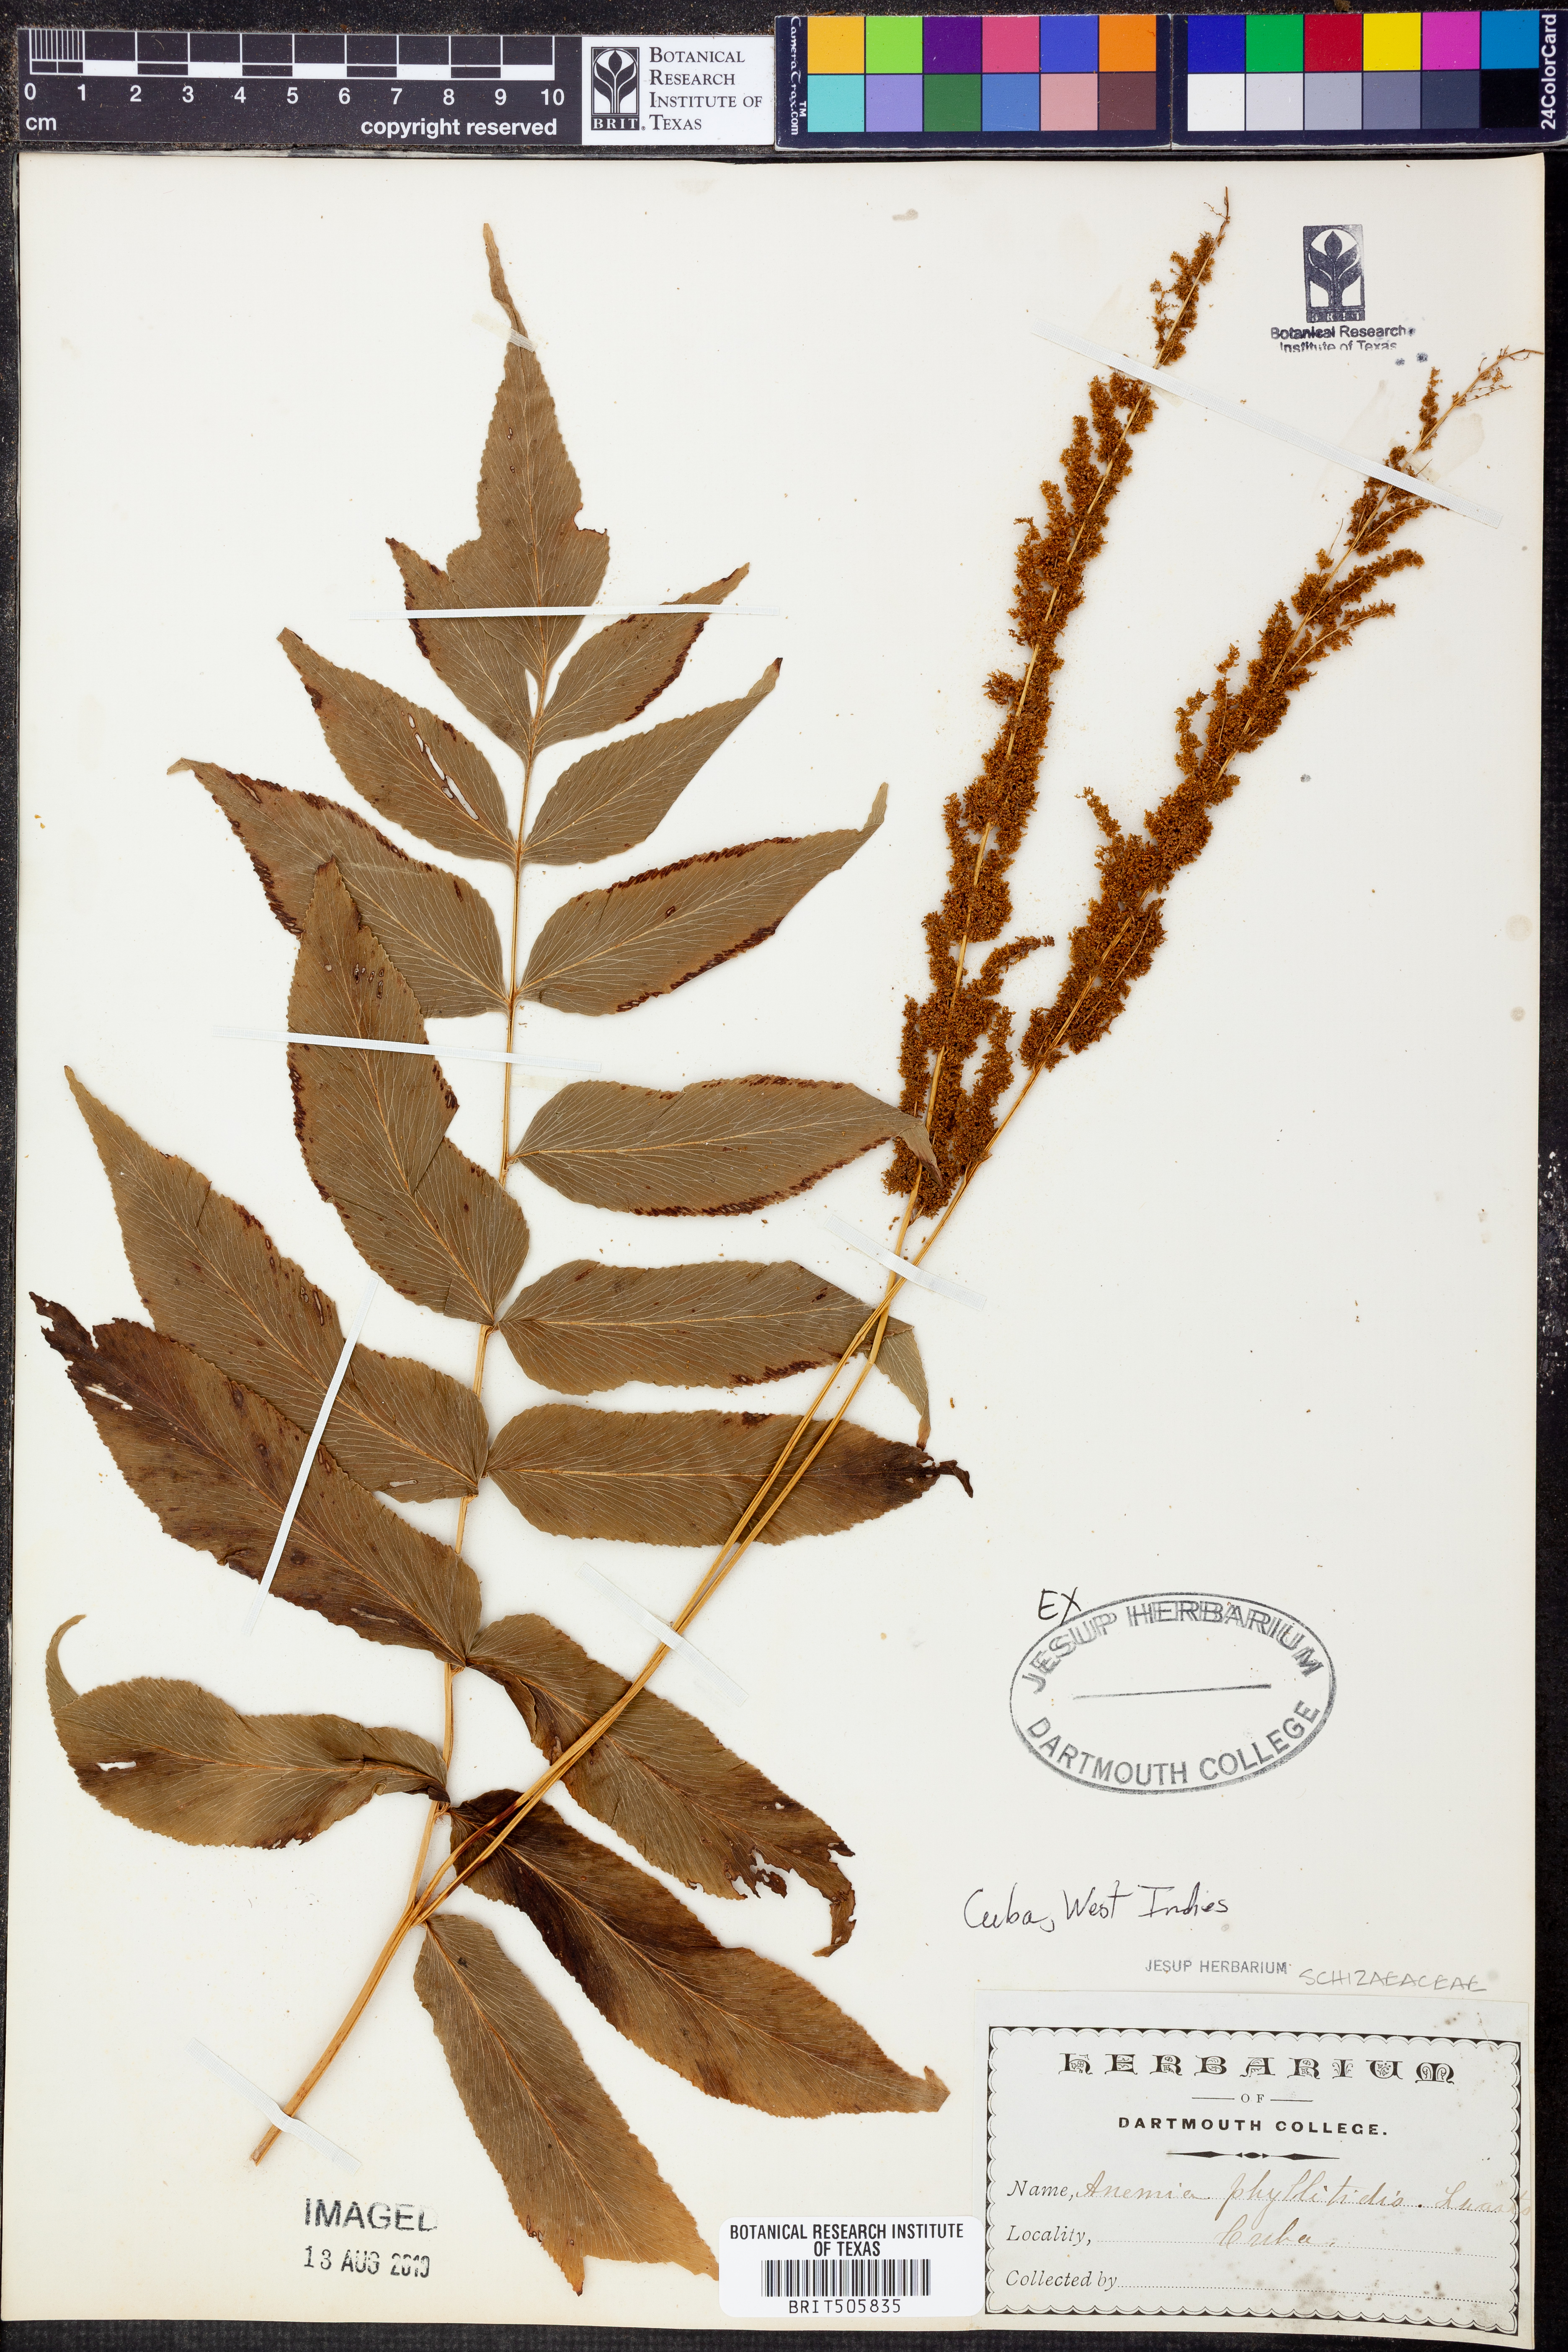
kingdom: Plantae
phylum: Tracheophyta
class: Polypodiopsida
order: Schizaeales
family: Anemiaceae
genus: Anemia
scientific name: Anemia phyllitidis
